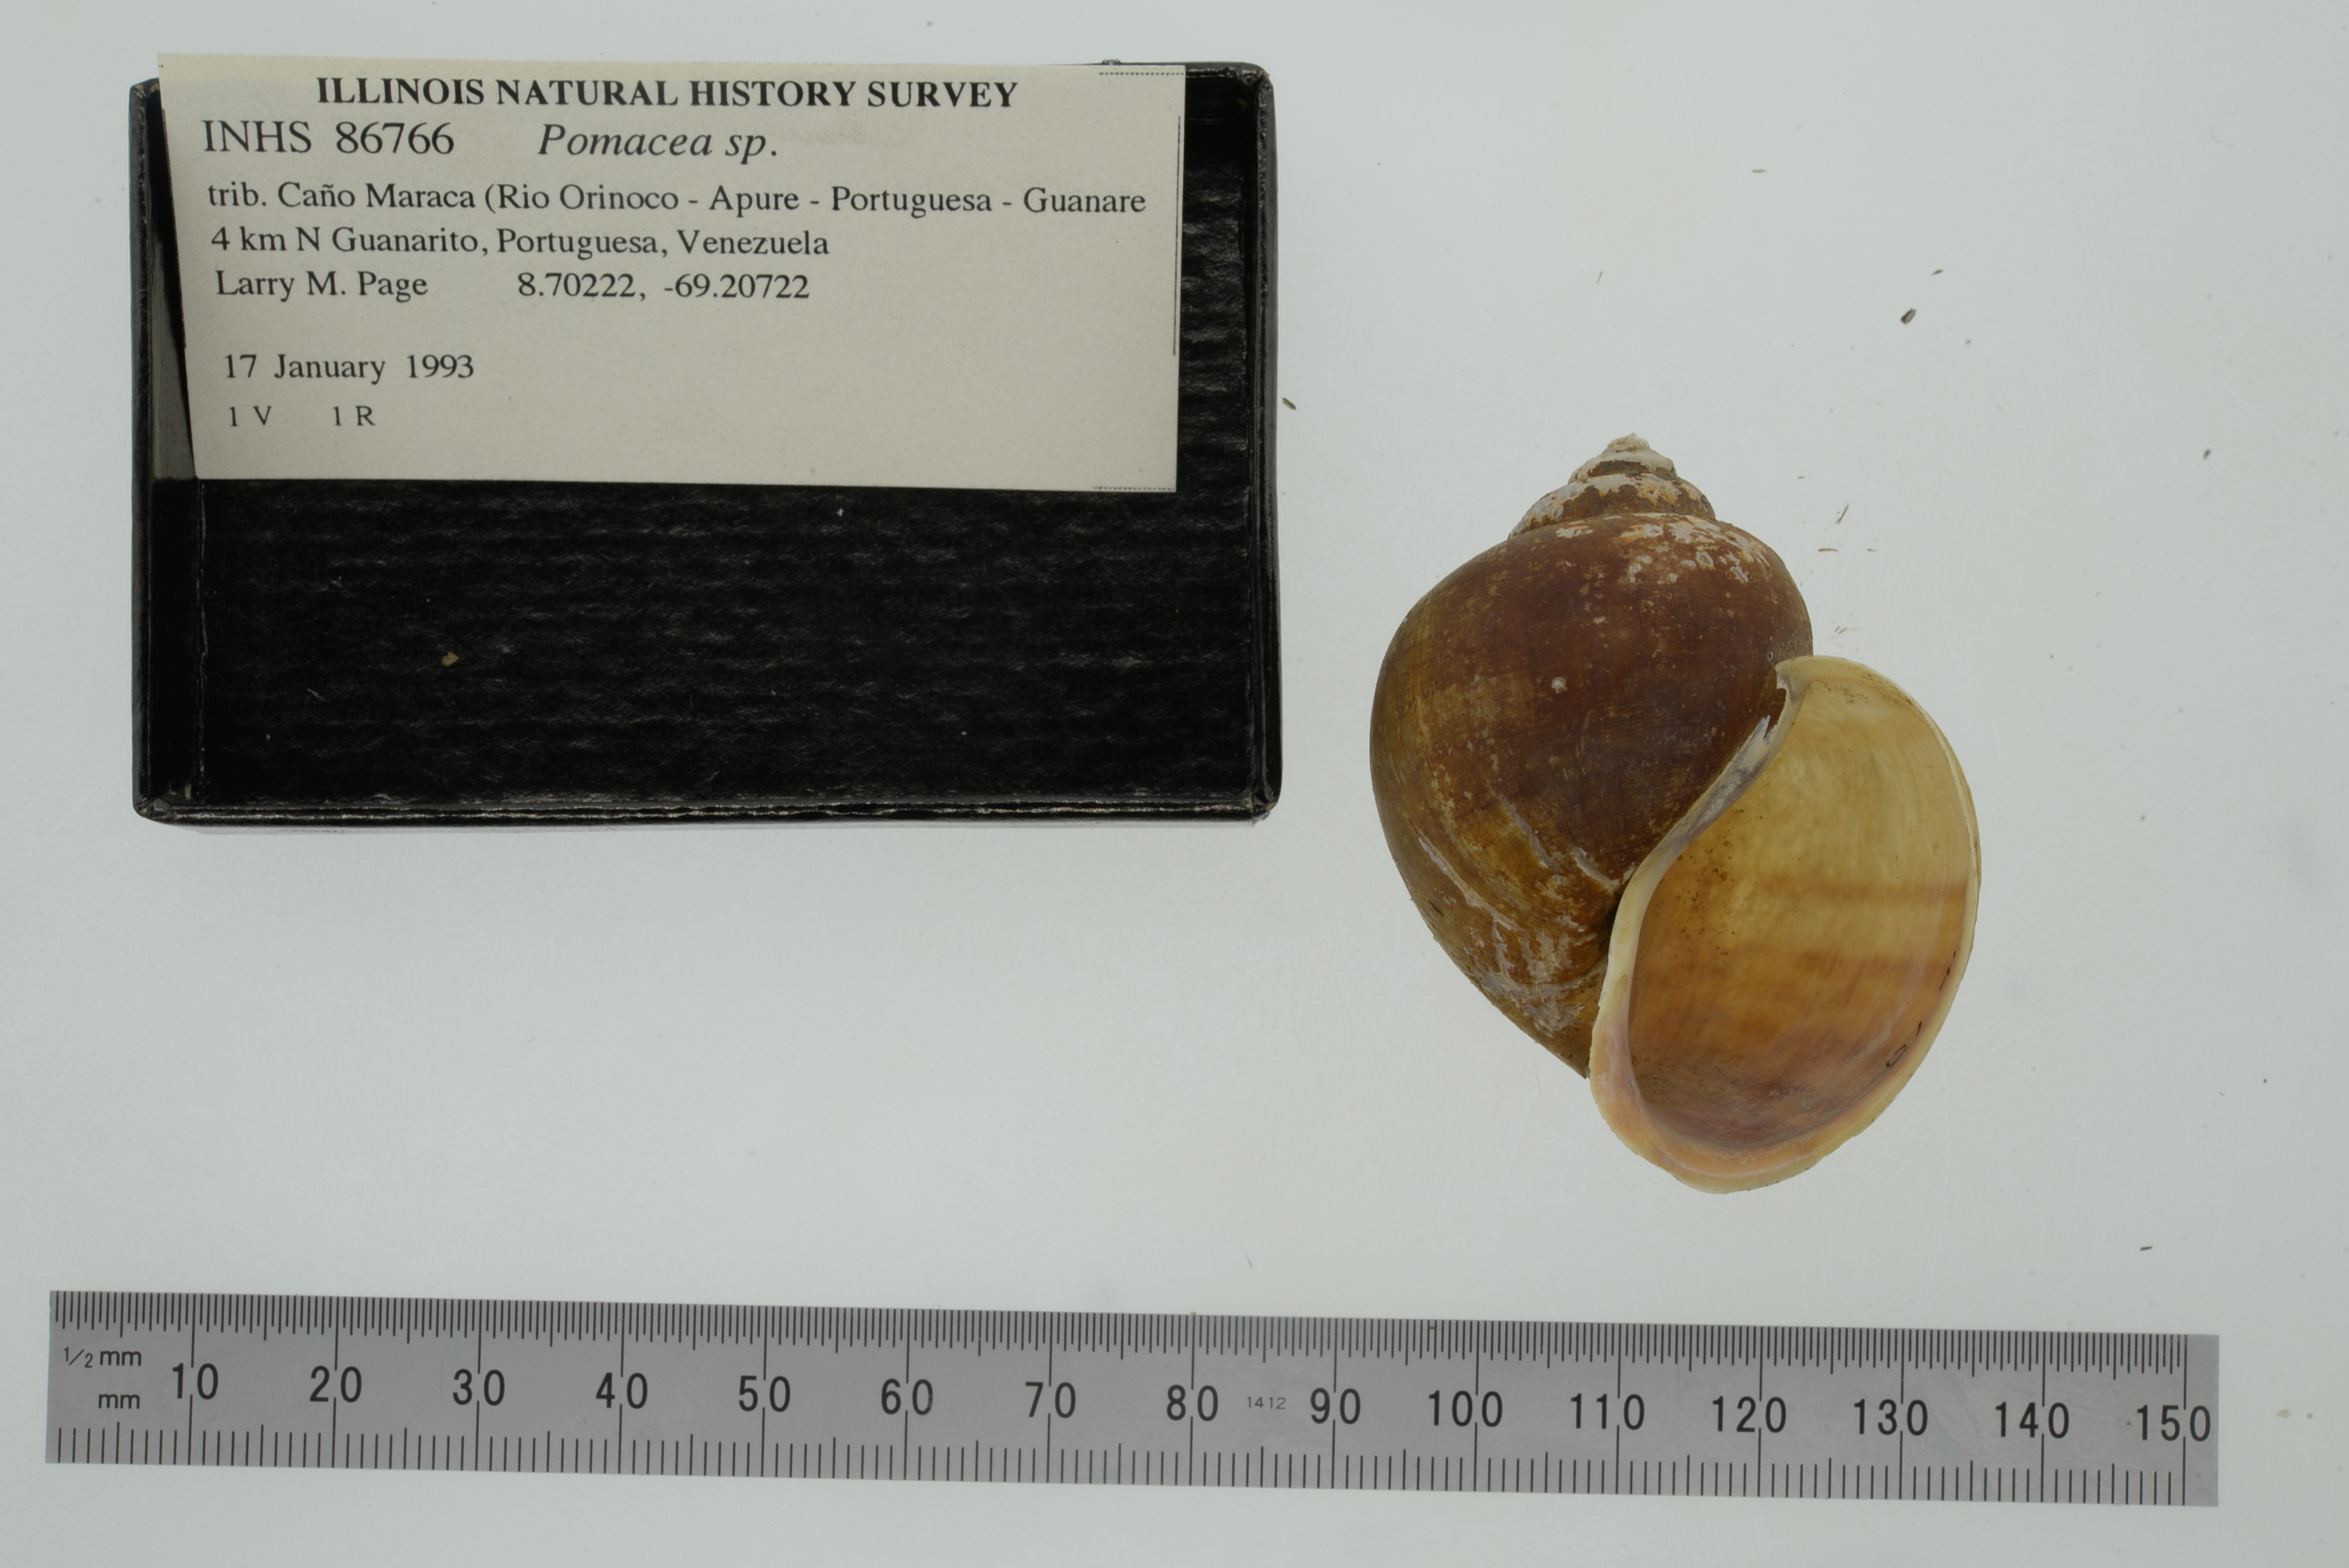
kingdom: Animalia
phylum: Mollusca
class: Gastropoda
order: Architaenioglossa
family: Ampullariidae
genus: Pomacea
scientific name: Pomacea
